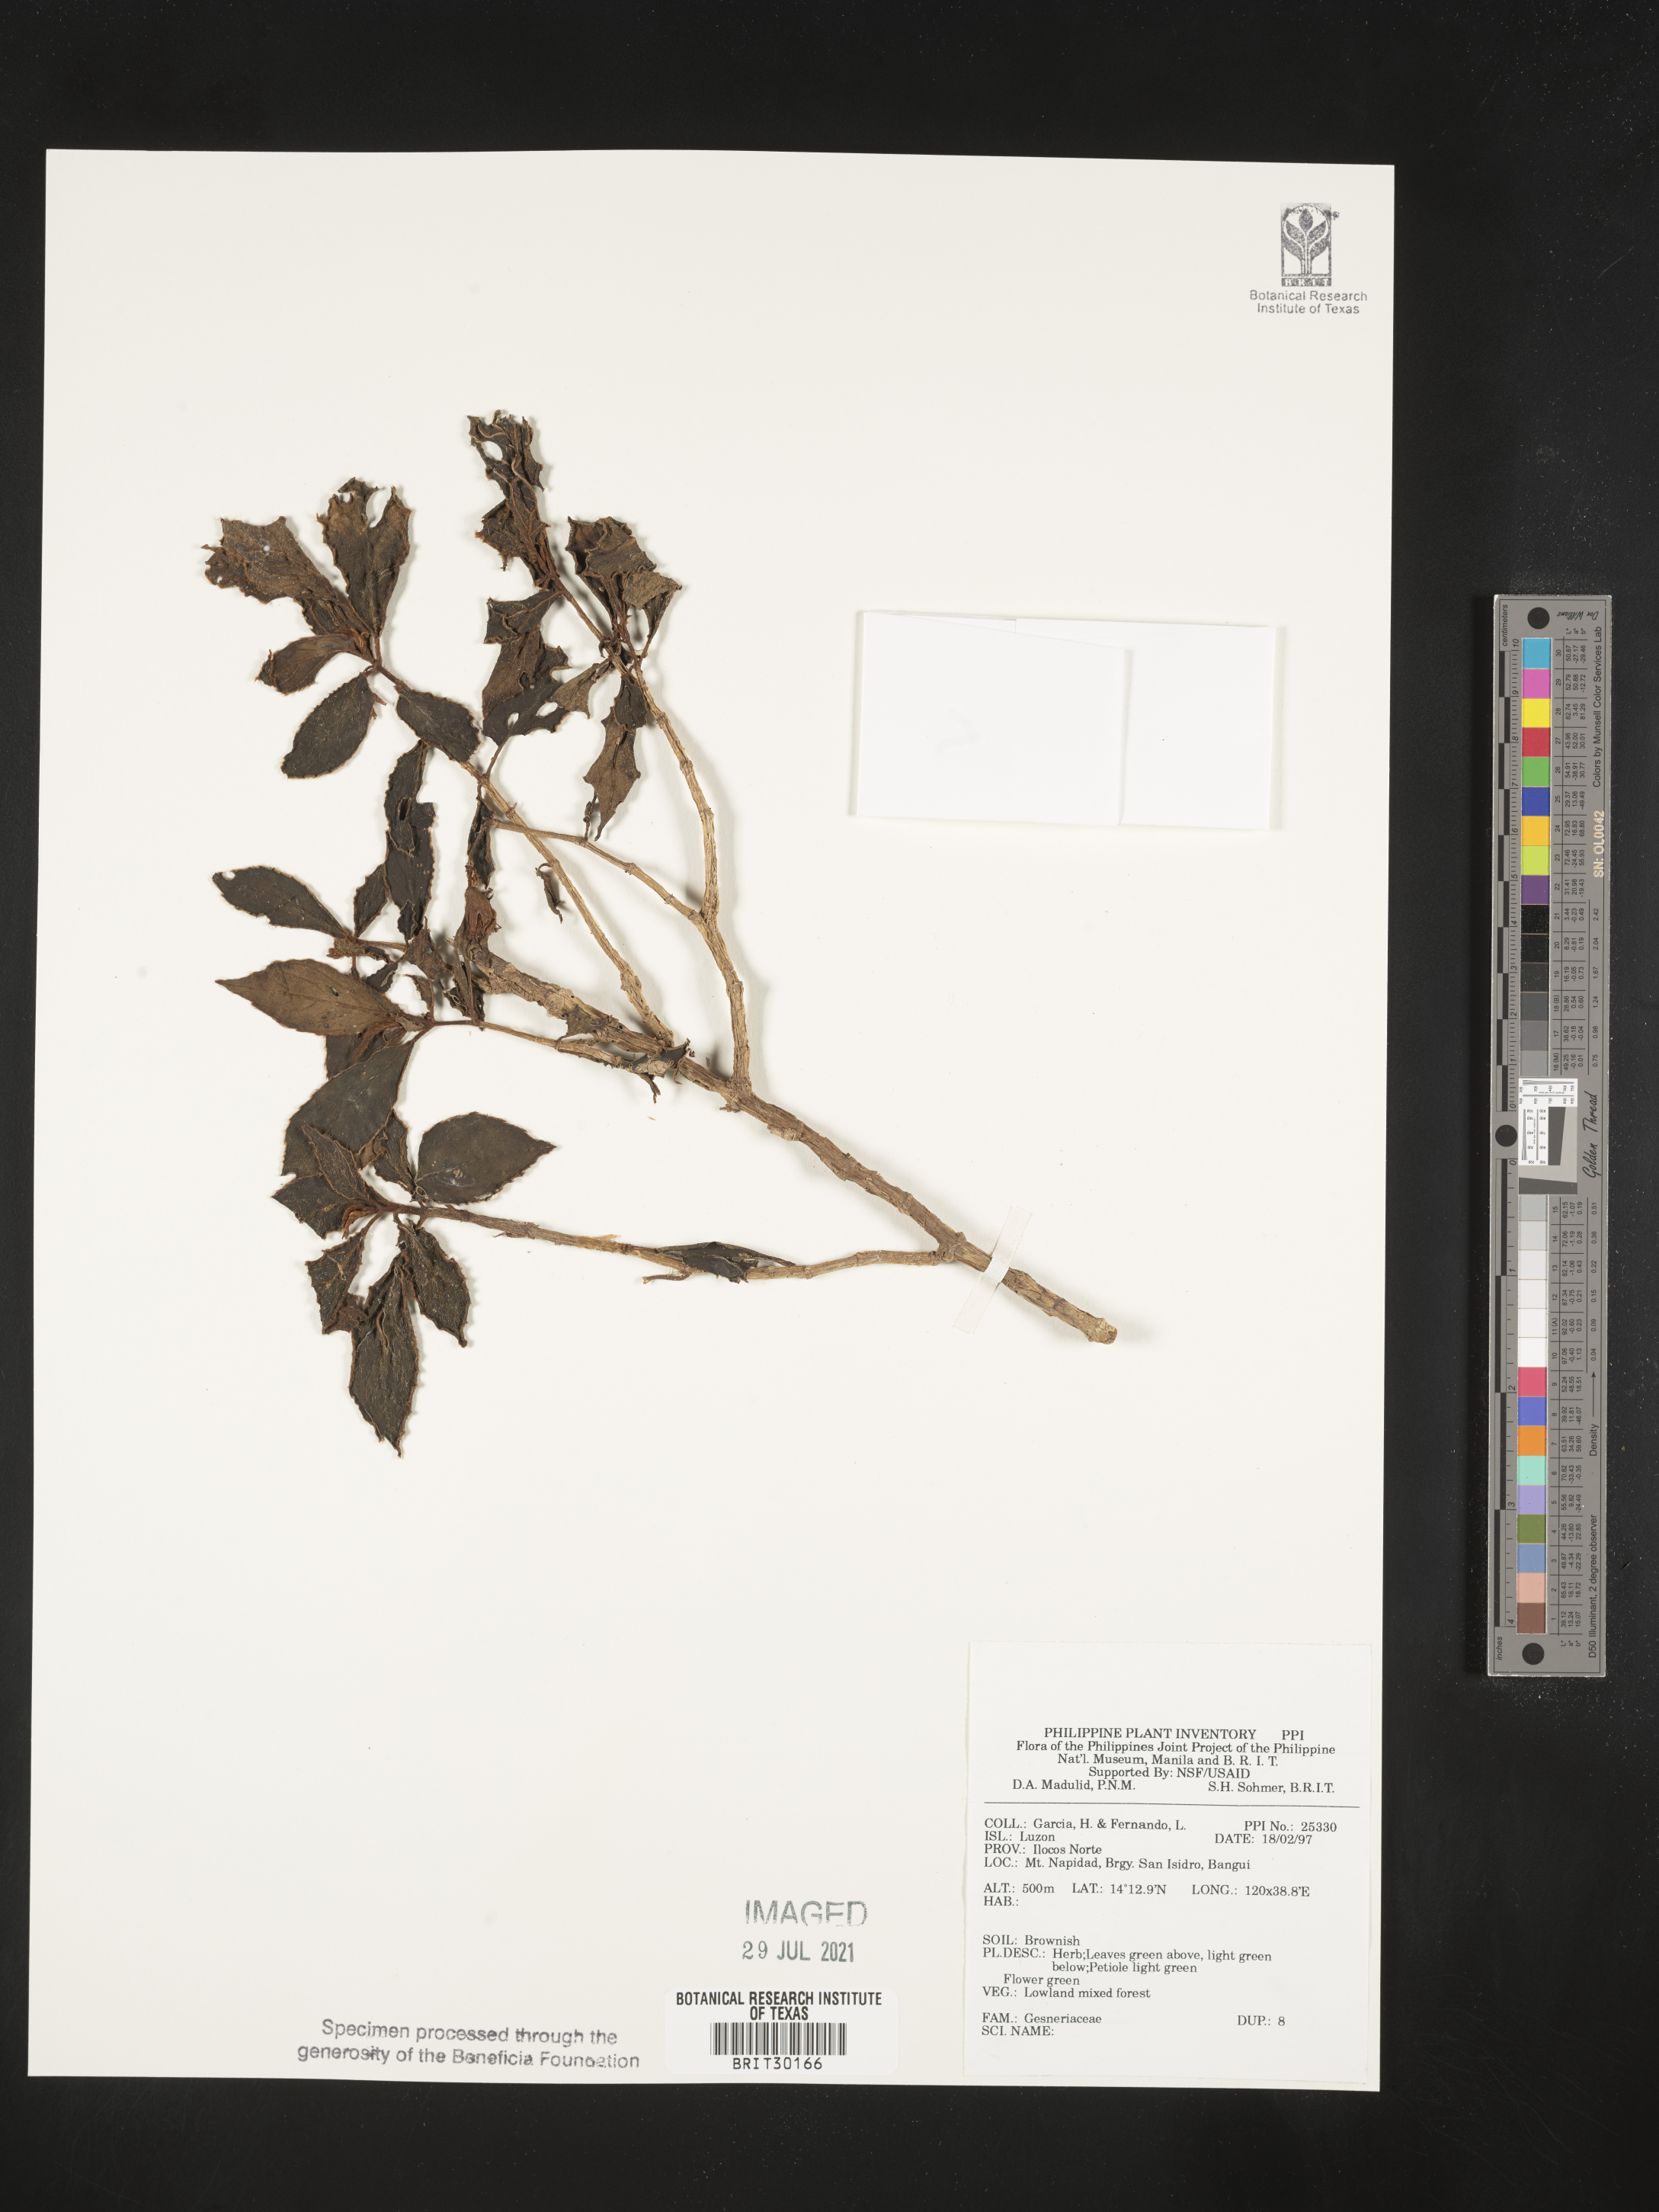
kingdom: Plantae
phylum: Tracheophyta
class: Magnoliopsida
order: Lamiales
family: Gesneriaceae
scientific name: Gesneriaceae
